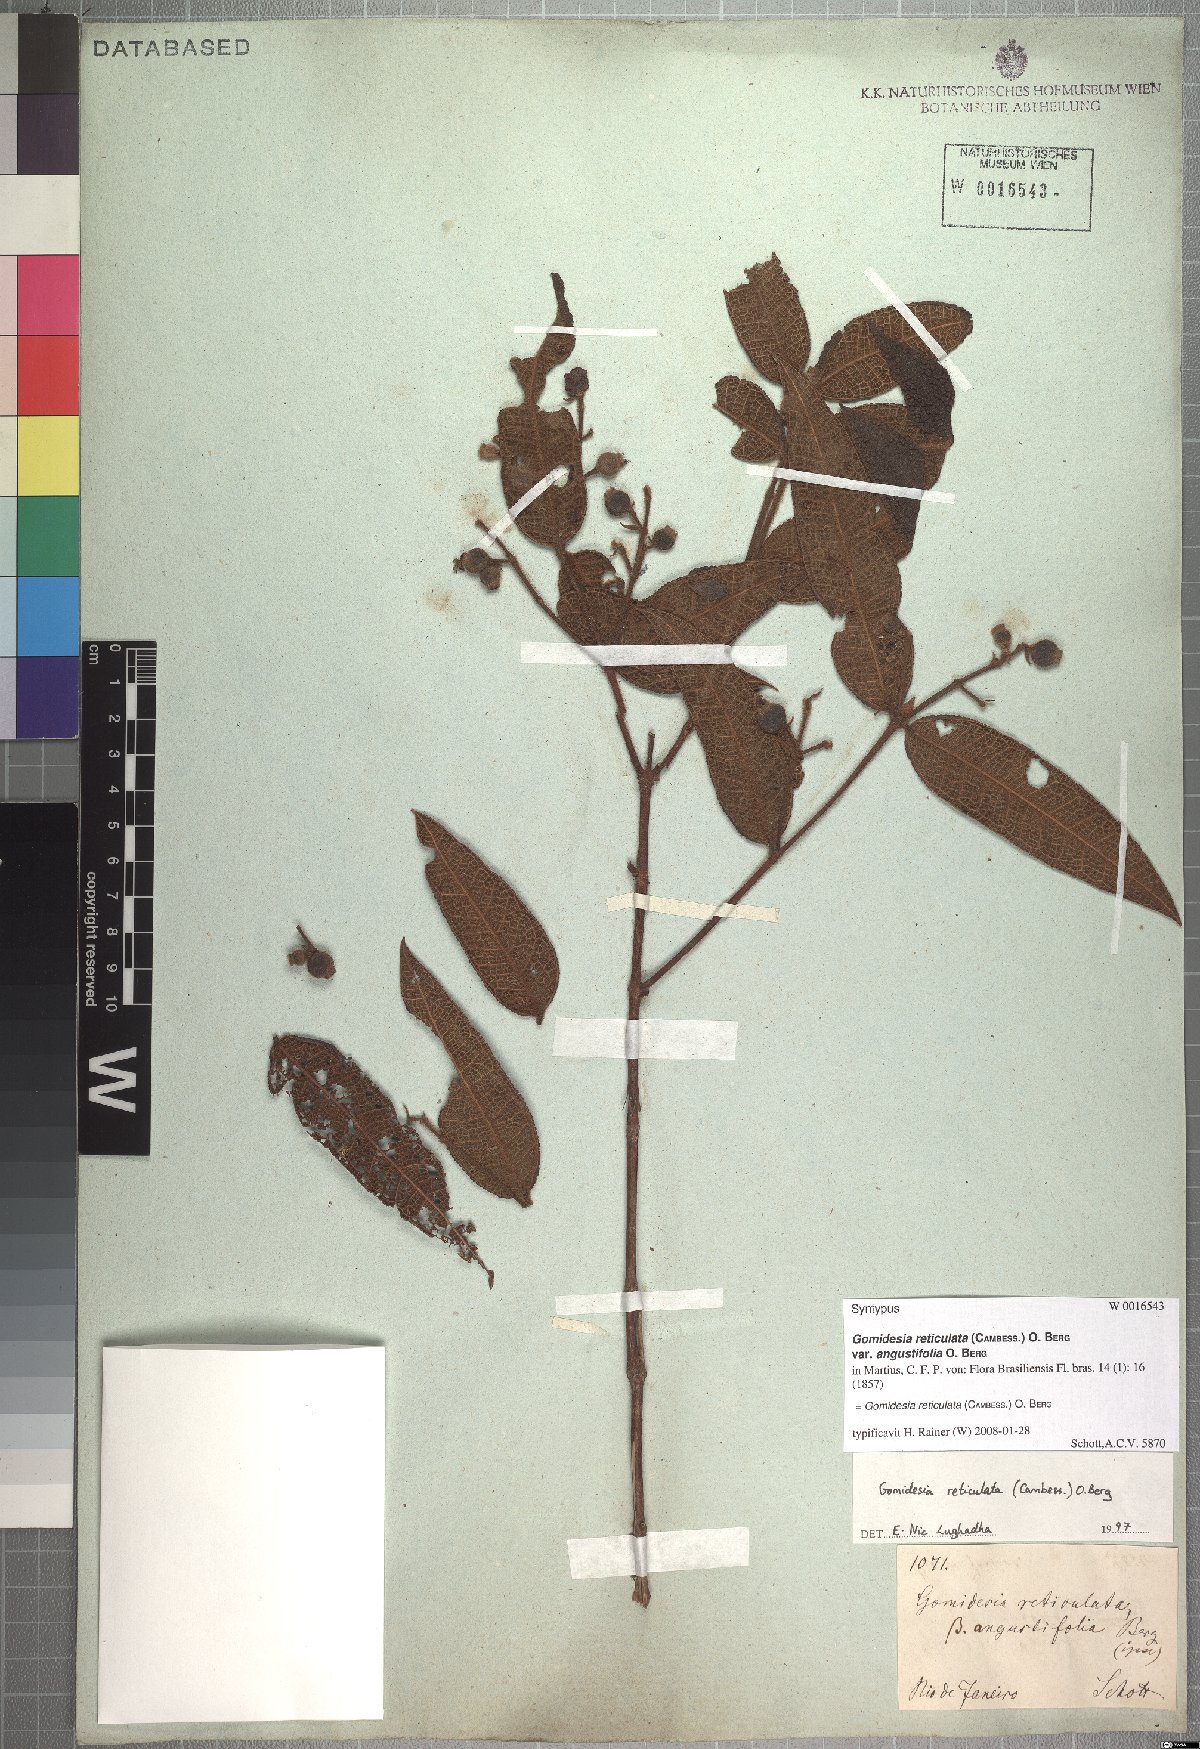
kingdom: Plantae
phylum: Tracheophyta
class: Magnoliopsida
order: Myrtales
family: Myrtaceae
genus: Myrcia
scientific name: Myrcia reticulata
